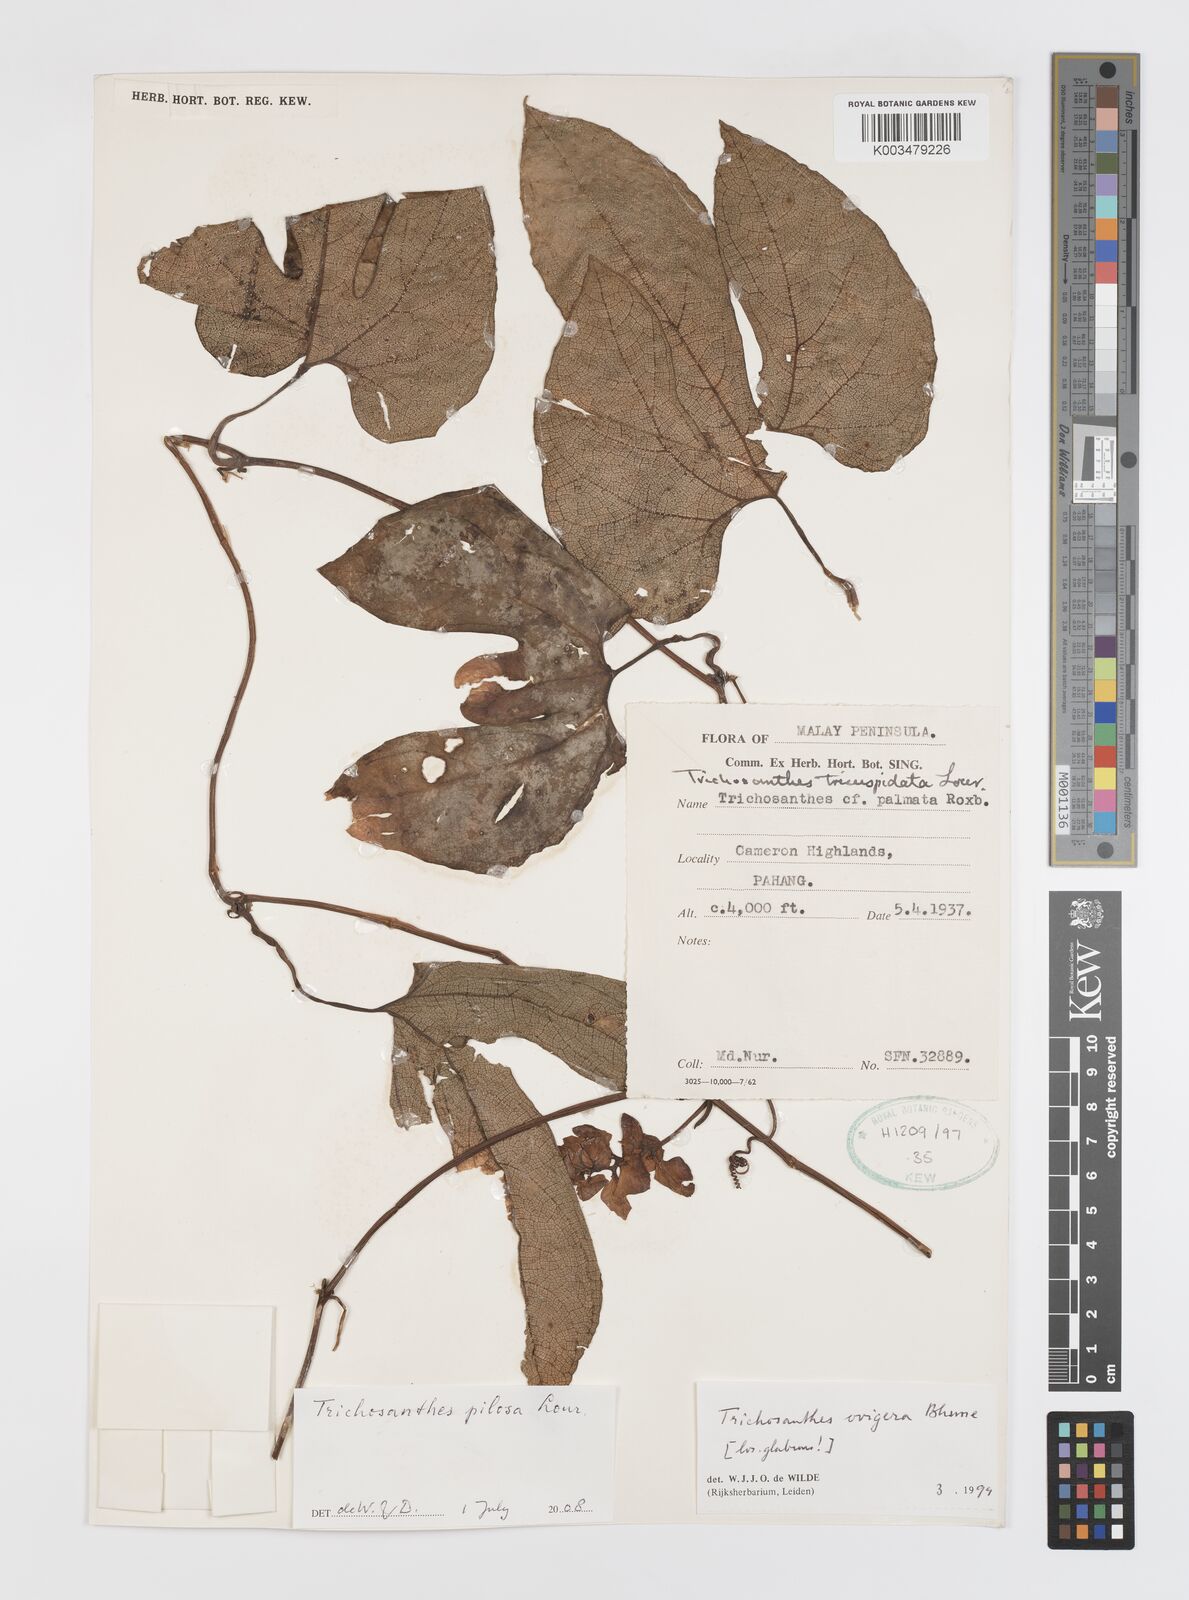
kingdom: Plantae
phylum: Tracheophyta
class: Magnoliopsida
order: Cucurbitales
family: Cucurbitaceae
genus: Trichosanthes
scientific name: Trichosanthes pilosa
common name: Snake gourd
